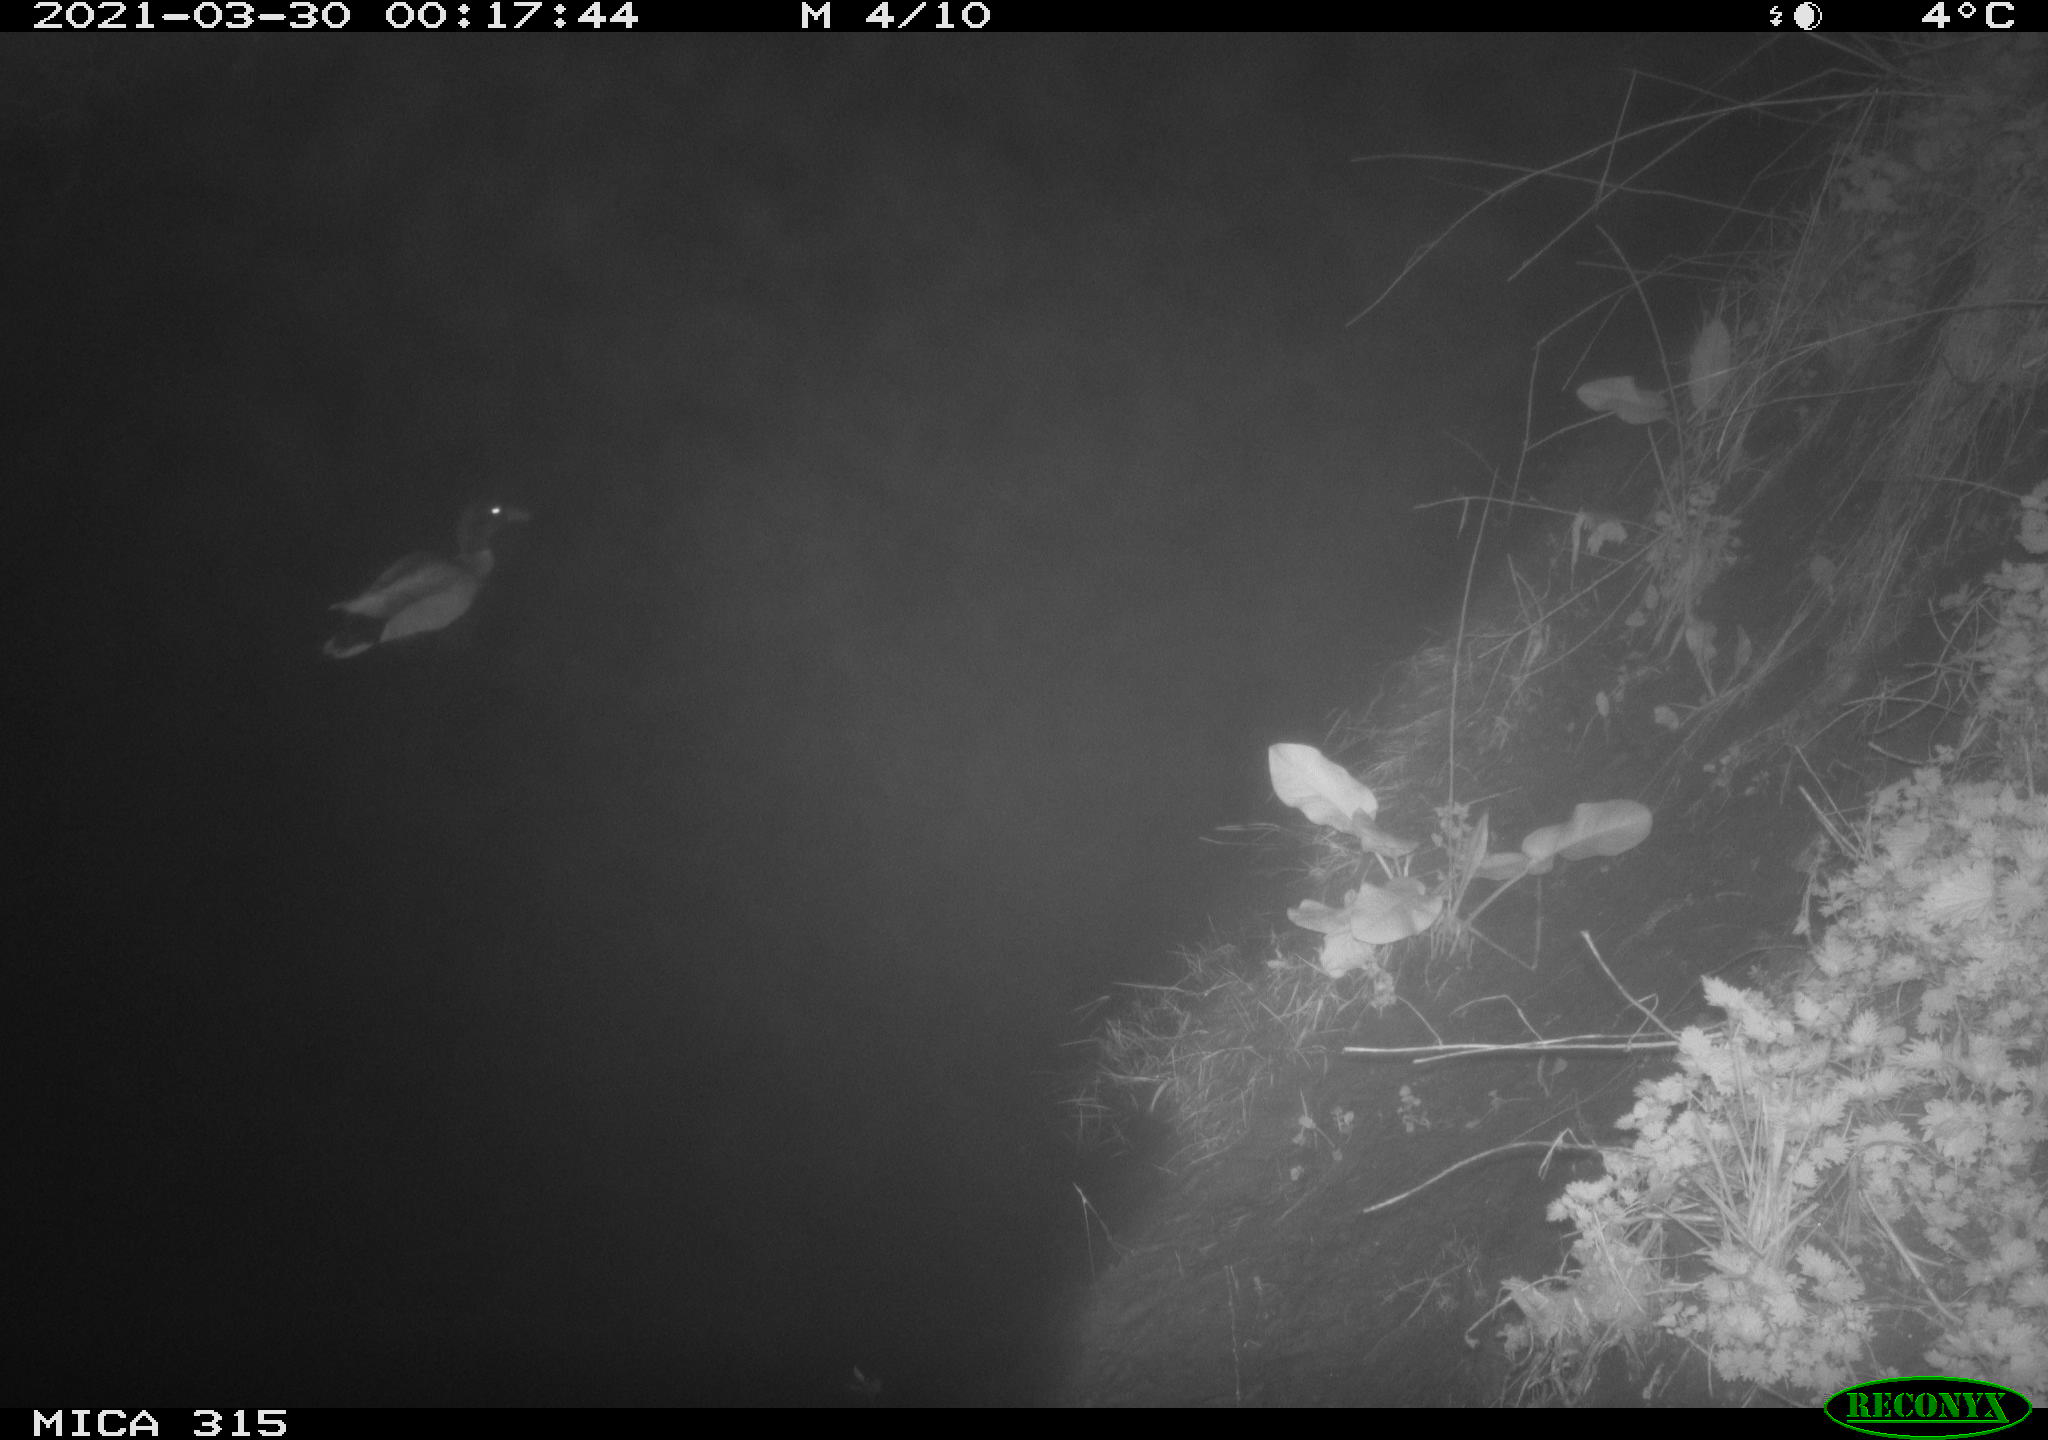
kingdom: Animalia
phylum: Chordata
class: Aves
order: Anseriformes
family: Anatidae
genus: Anas
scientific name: Anas platyrhynchos
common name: Mallard
